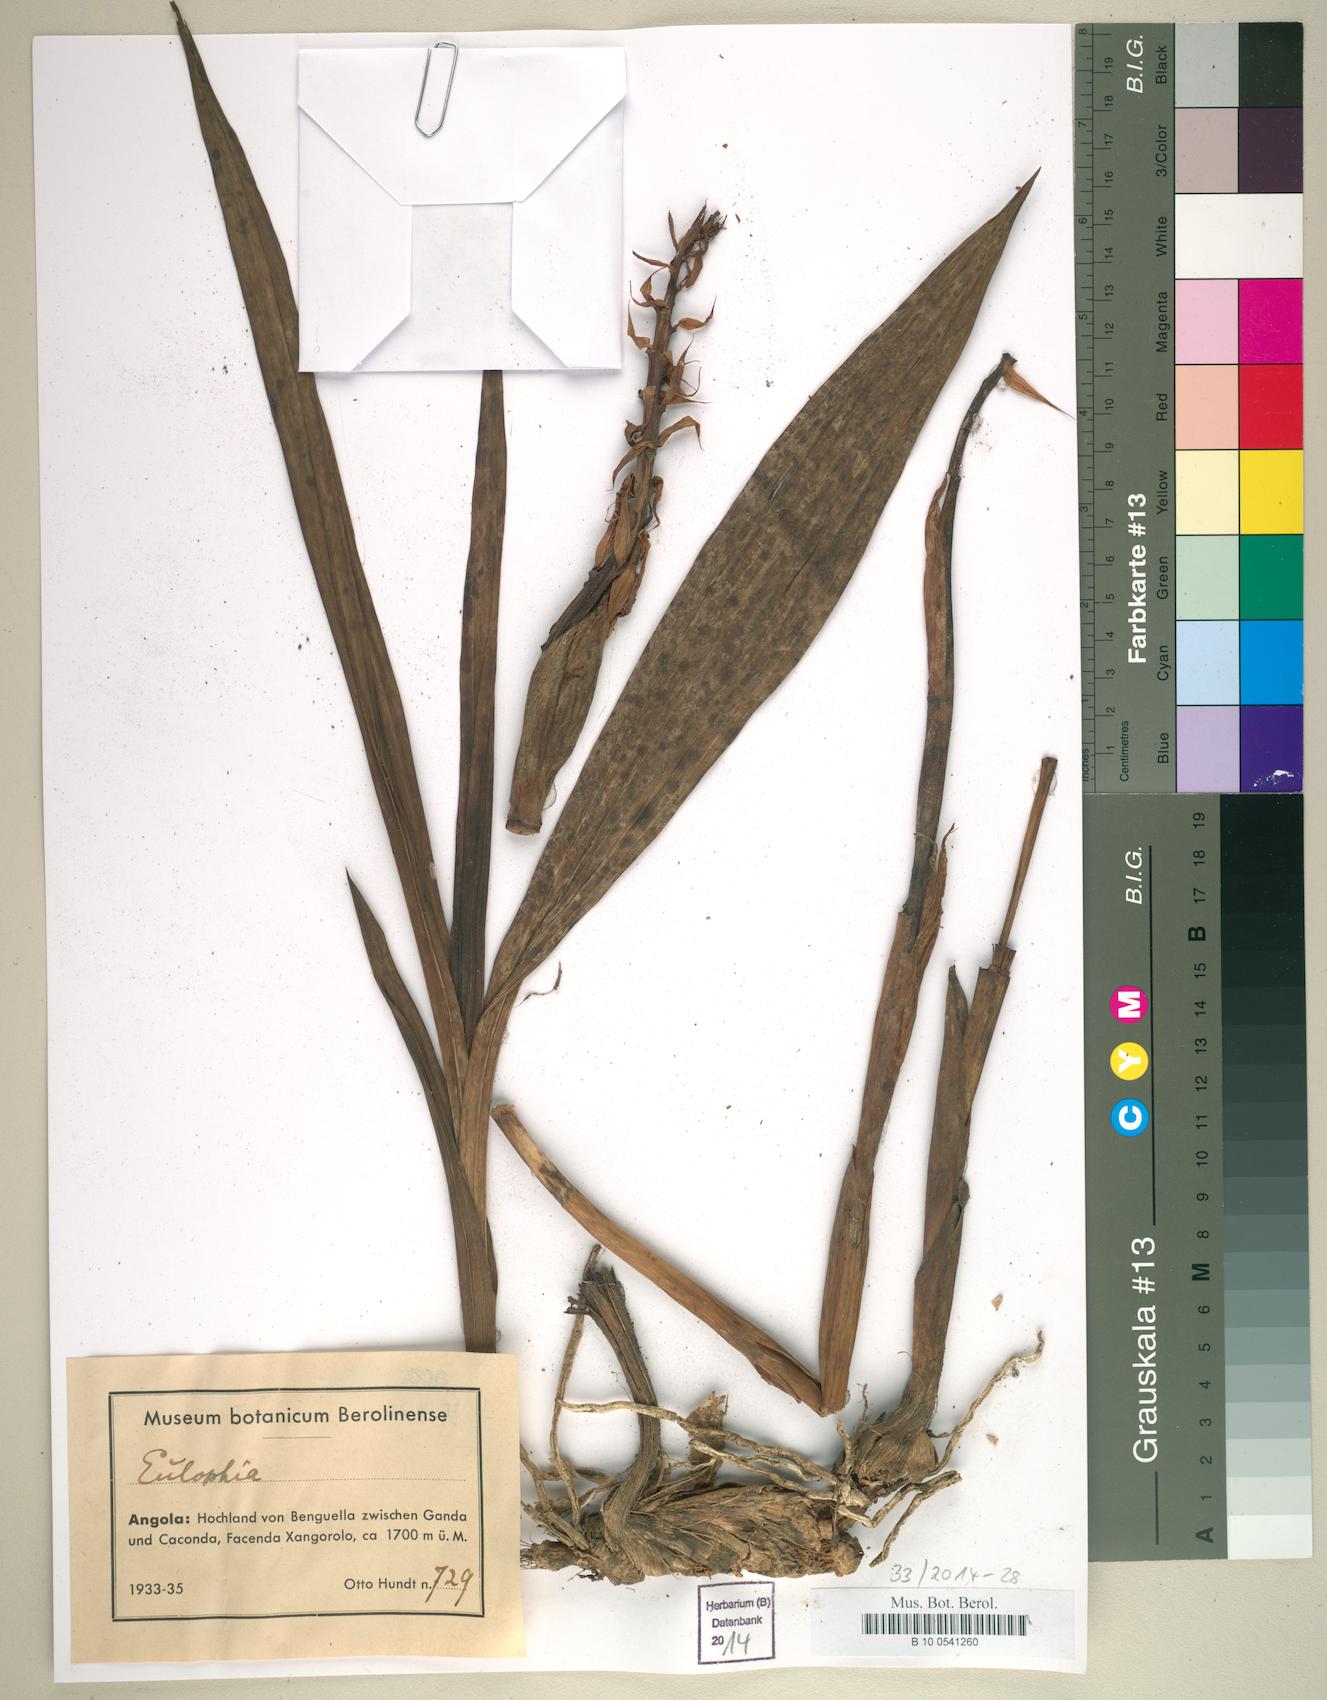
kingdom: Plantae
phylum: Tracheophyta
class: Liliopsida
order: Asparagales
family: Orchidaceae
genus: Eulophia
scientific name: Eulophia
